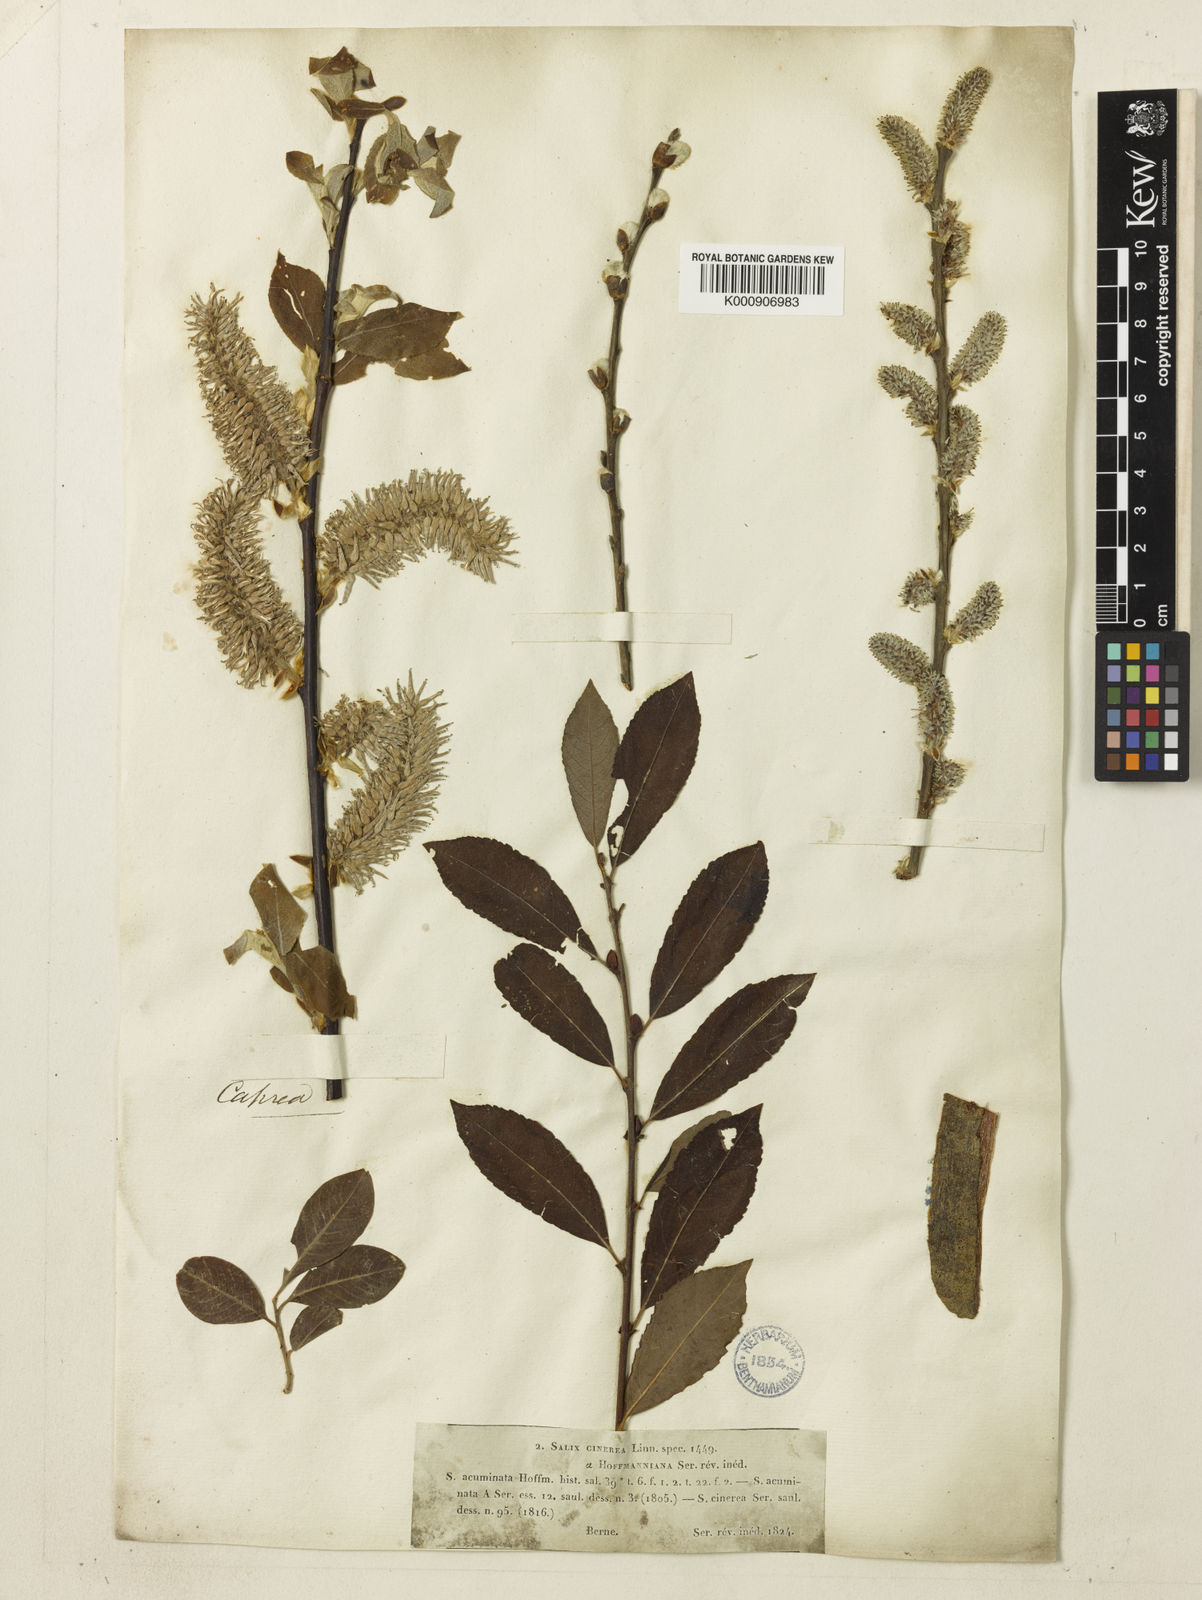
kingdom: Plantae
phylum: Tracheophyta
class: Magnoliopsida
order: Malpighiales
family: Salicaceae
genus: Salix
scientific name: Salix cinerea
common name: Common sallow
